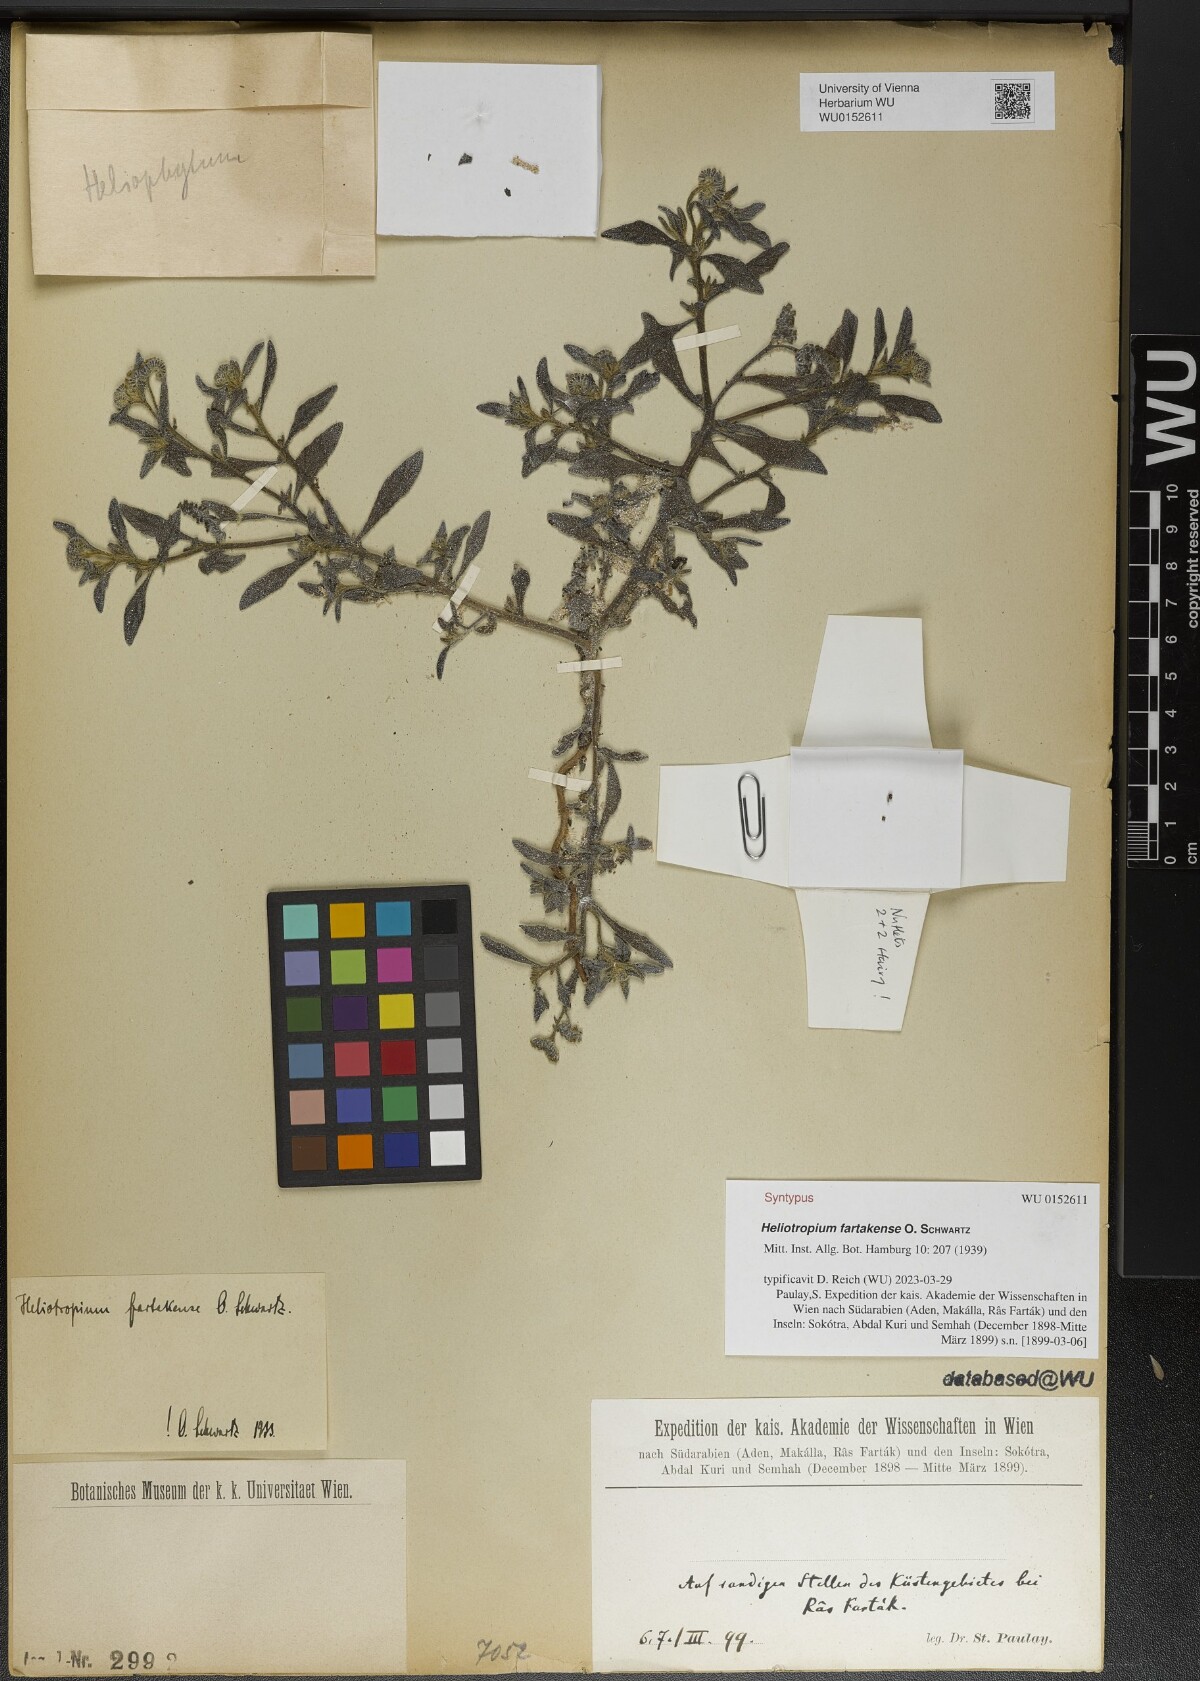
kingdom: Plantae
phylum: Tracheophyta
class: Magnoliopsida
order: Boraginales
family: Heliotropiaceae
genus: Heliotropium
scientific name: Heliotropium bacciferum
